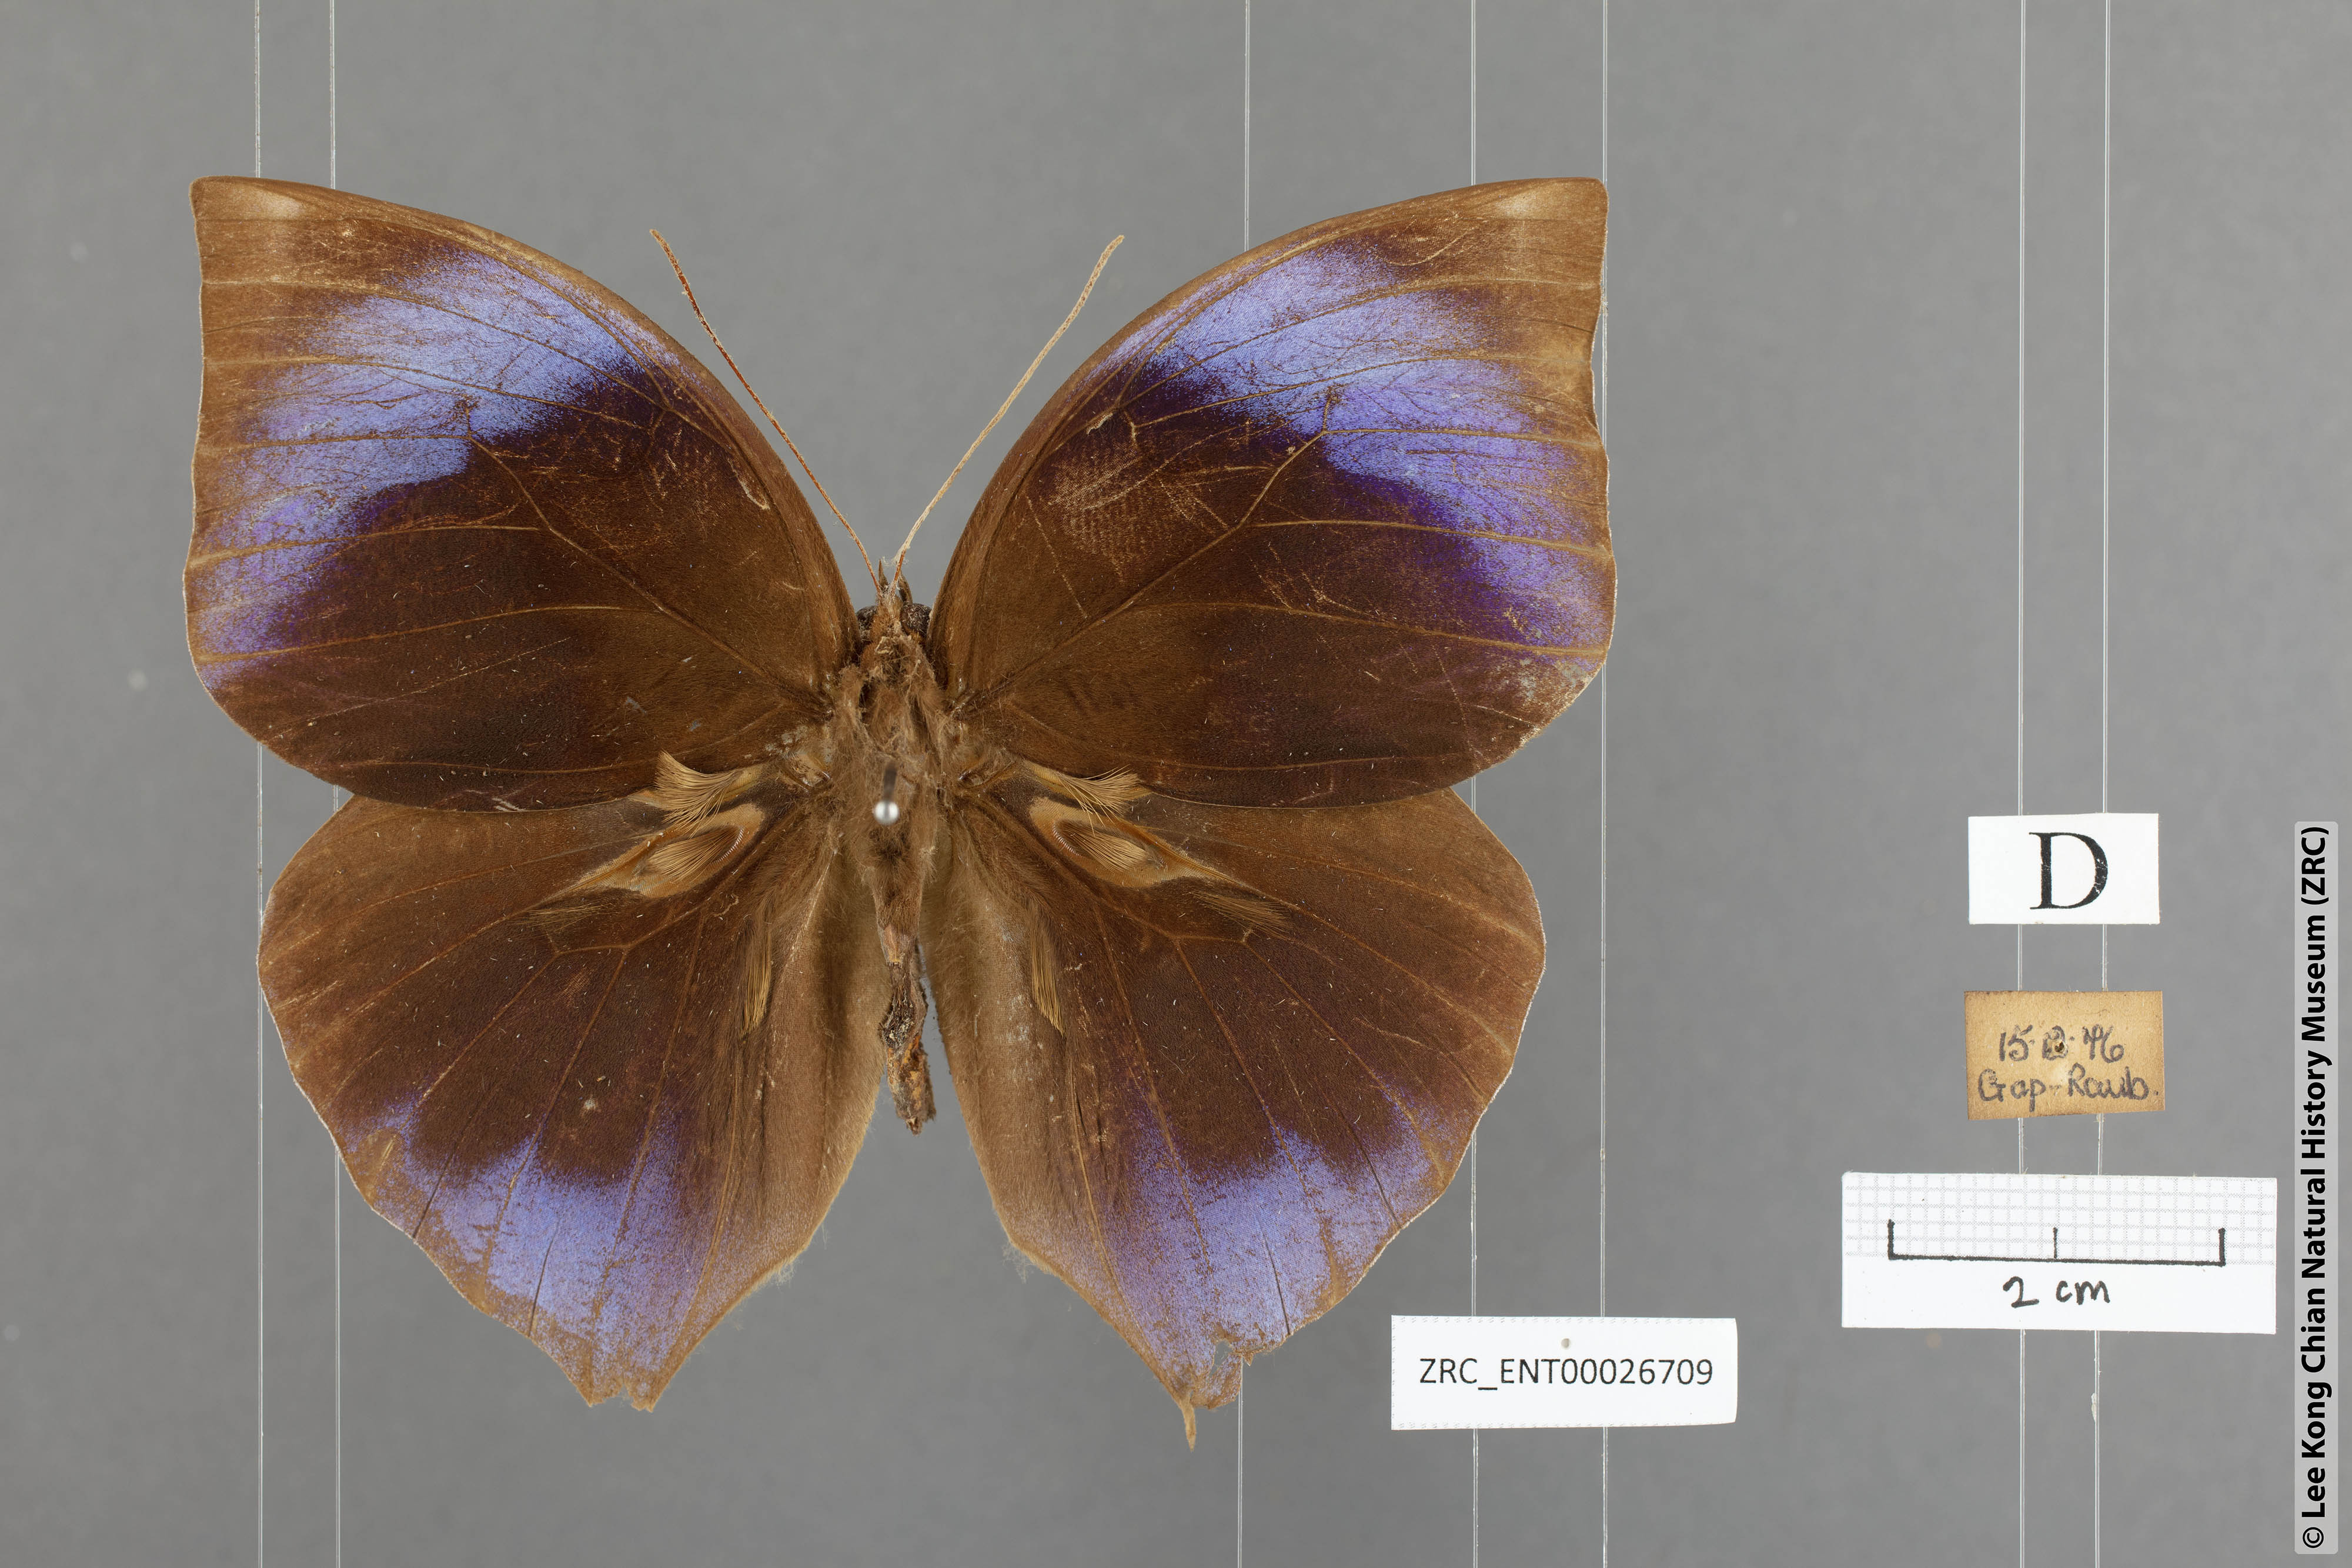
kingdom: Animalia
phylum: Arthropoda
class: Insecta
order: Lepidoptera
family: Nymphalidae
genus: Zeuxidia
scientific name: Zeuxidia ameythystus
